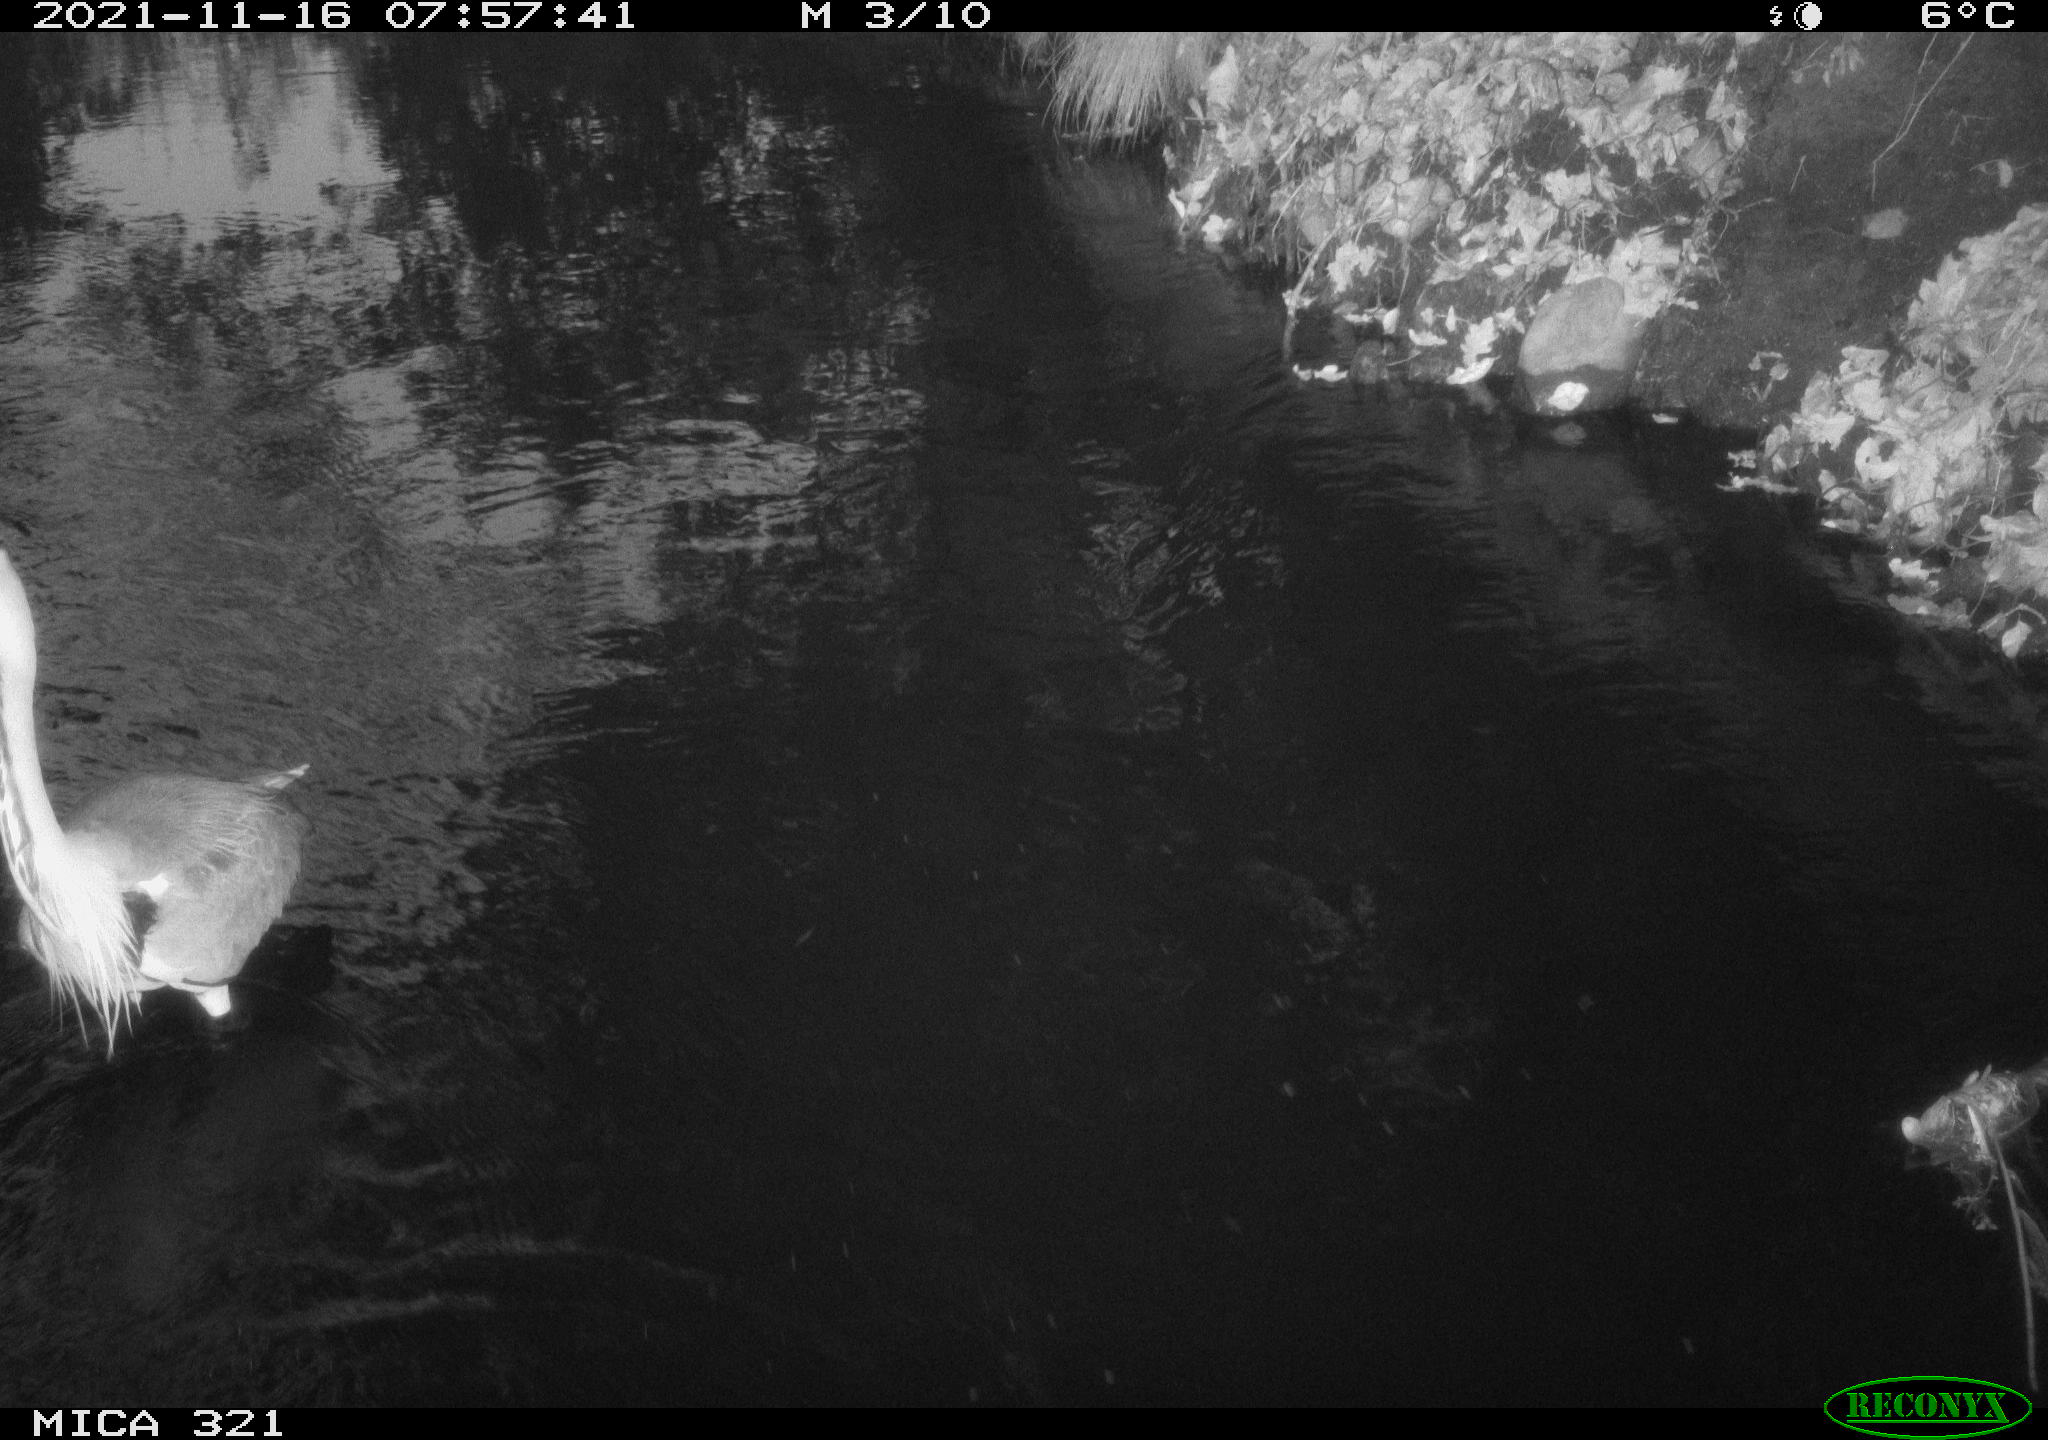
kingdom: Animalia
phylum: Chordata
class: Aves
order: Pelecaniformes
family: Ardeidae
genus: Ardea
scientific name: Ardea cinerea
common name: Grey heron
